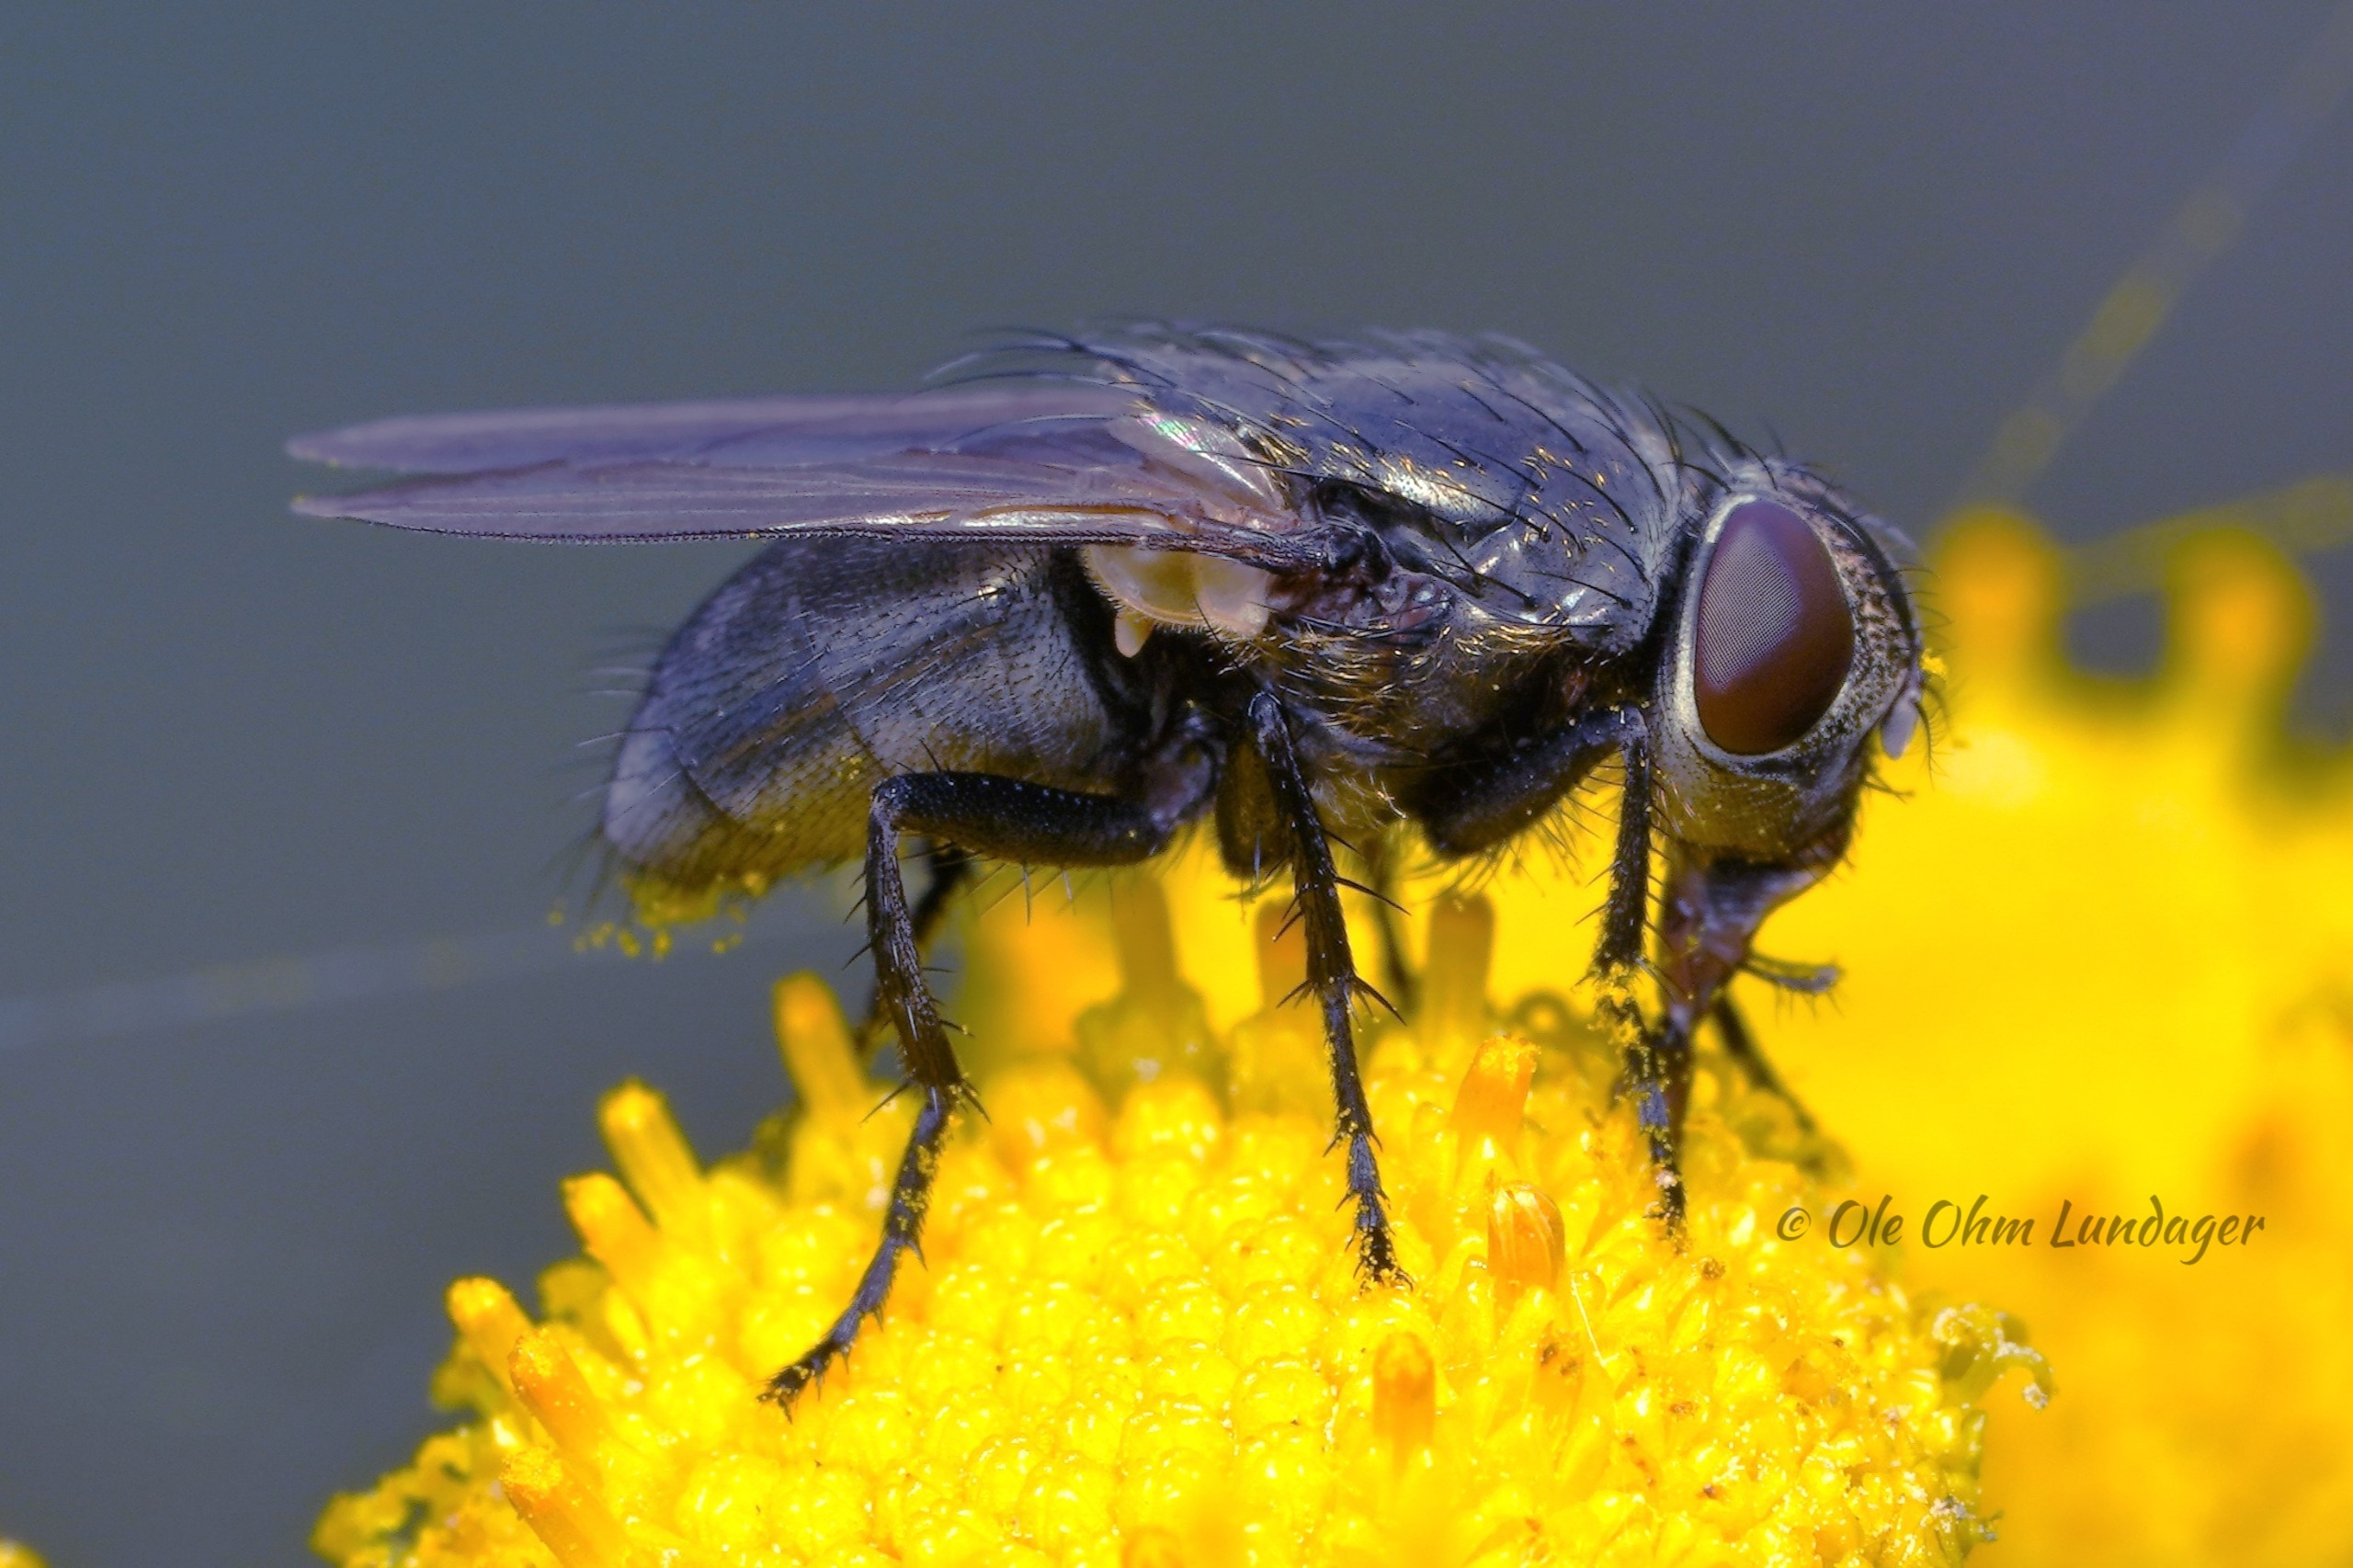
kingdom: Animalia
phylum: Arthropoda
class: Insecta
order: Diptera
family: Polleniidae
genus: Pollenia
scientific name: Pollenia amentaria
